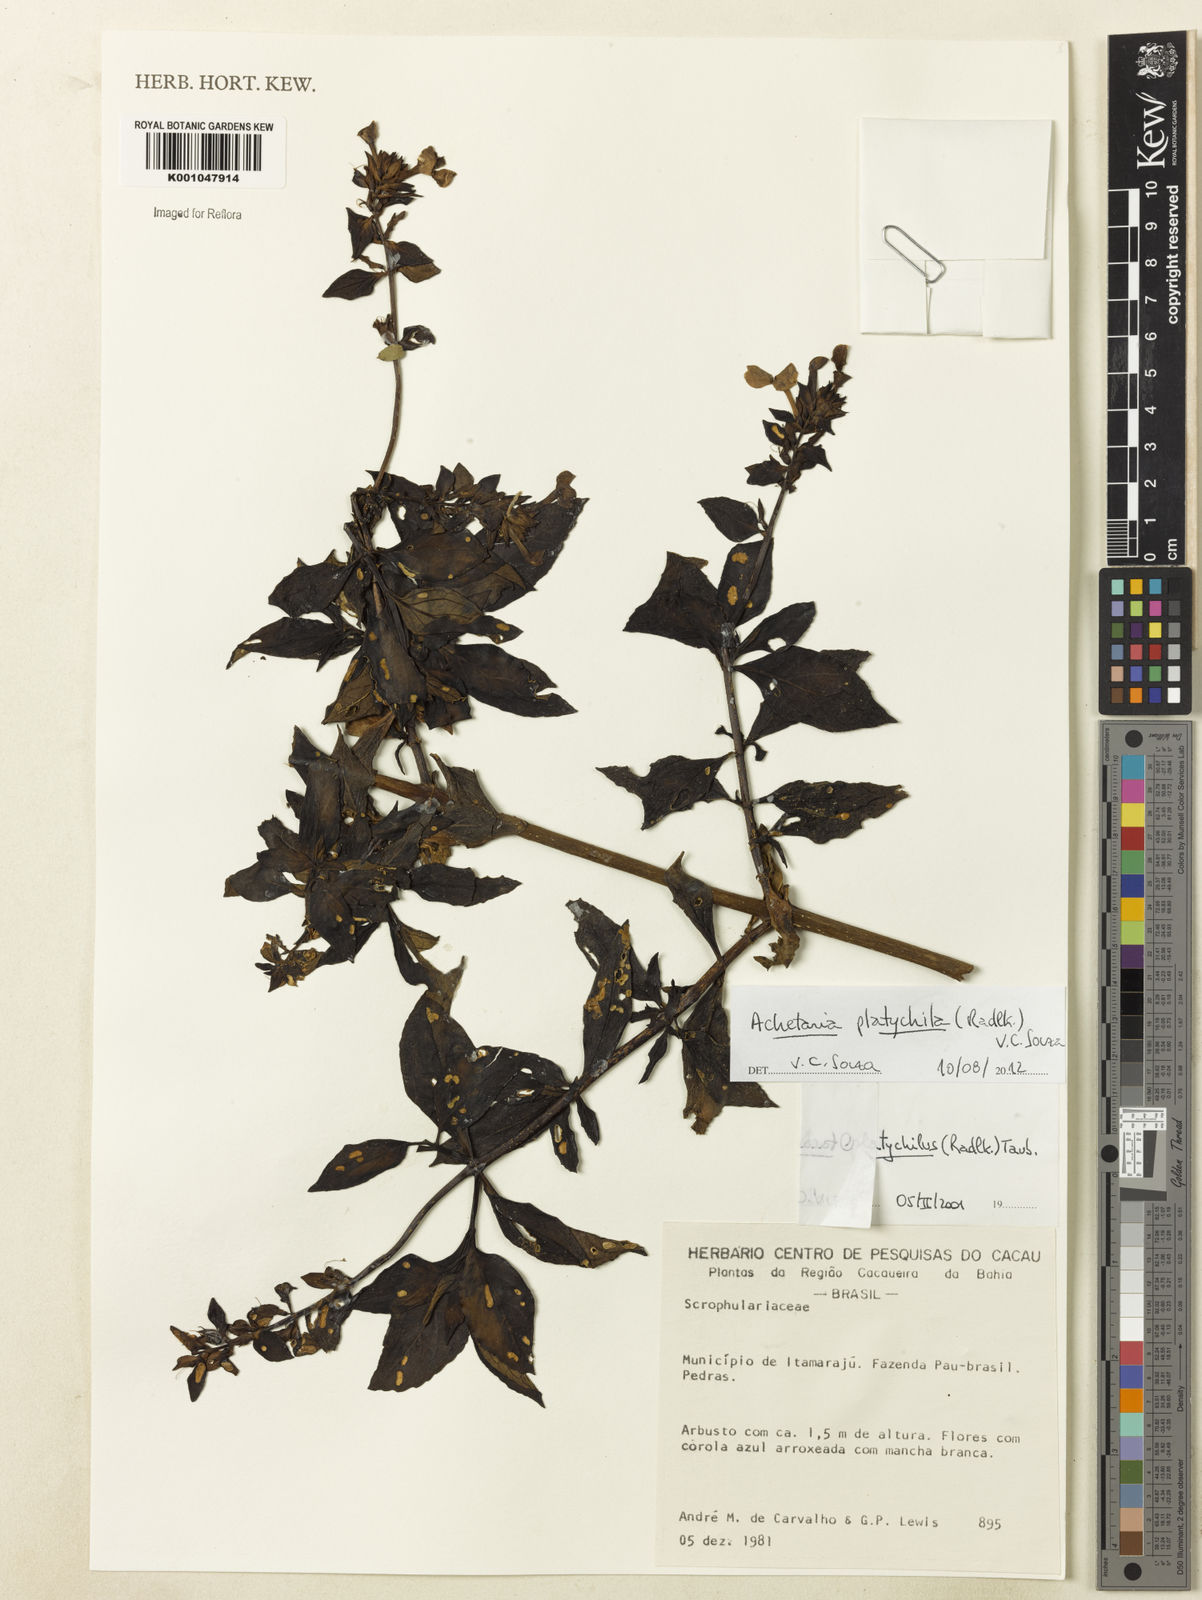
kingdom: Plantae
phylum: Tracheophyta
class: Magnoliopsida
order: Lamiales
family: Plantaginaceae
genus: Matourea
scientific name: Matourea platychila
